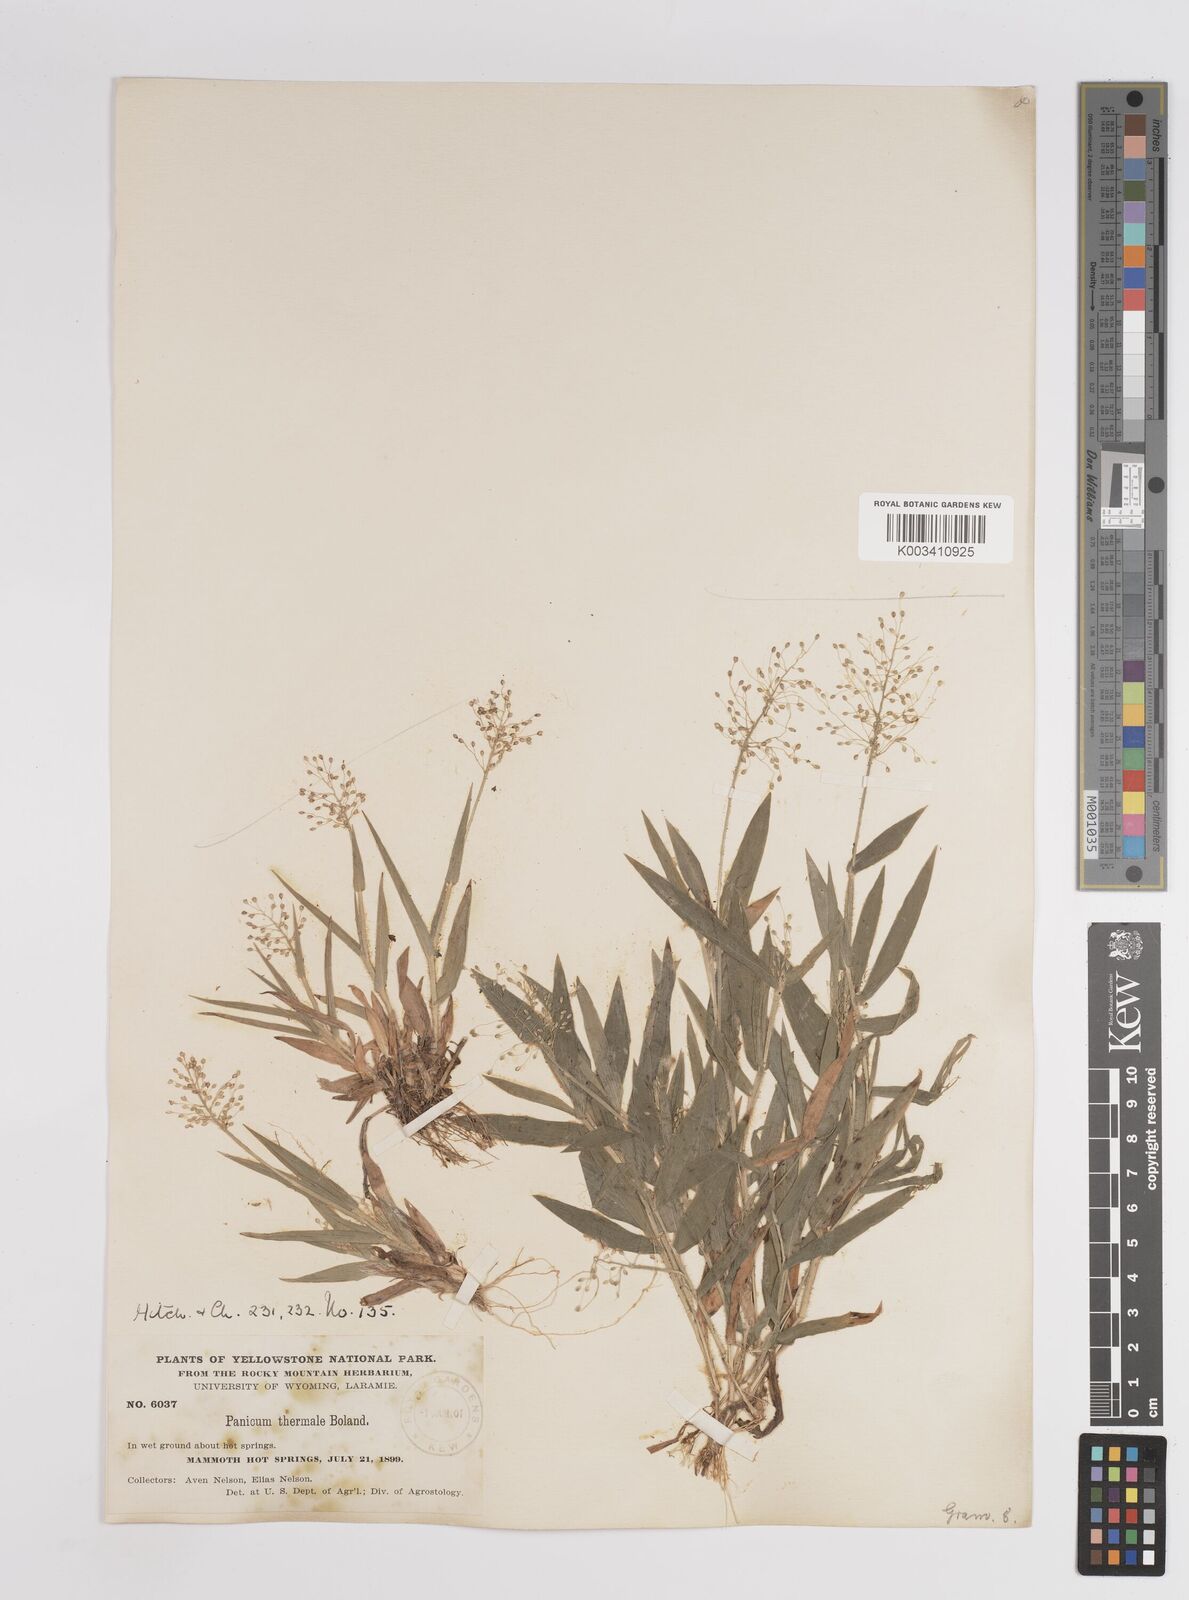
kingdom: Plantae
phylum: Tracheophyta
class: Liliopsida
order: Poales
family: Poaceae
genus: Dichanthelium
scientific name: Dichanthelium thermale
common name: Geyser panicgrass
